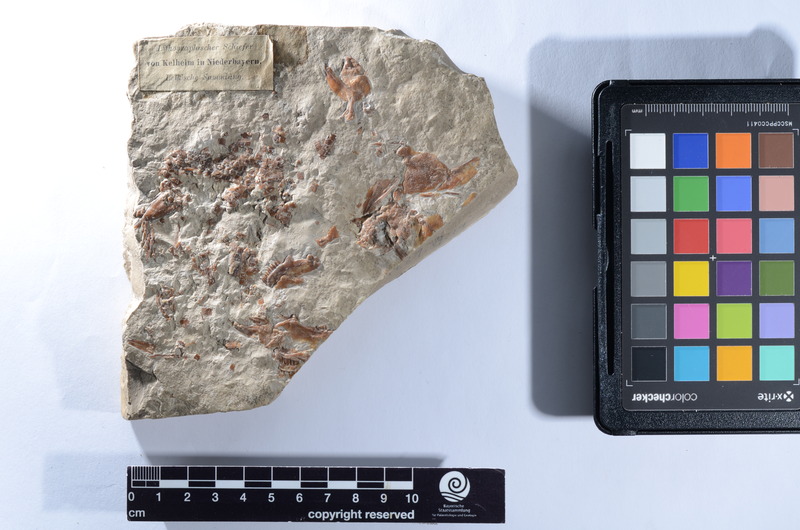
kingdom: Animalia
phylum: Chordata
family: Macrosemiidae
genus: Macrosemius
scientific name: Macrosemius rostratus
